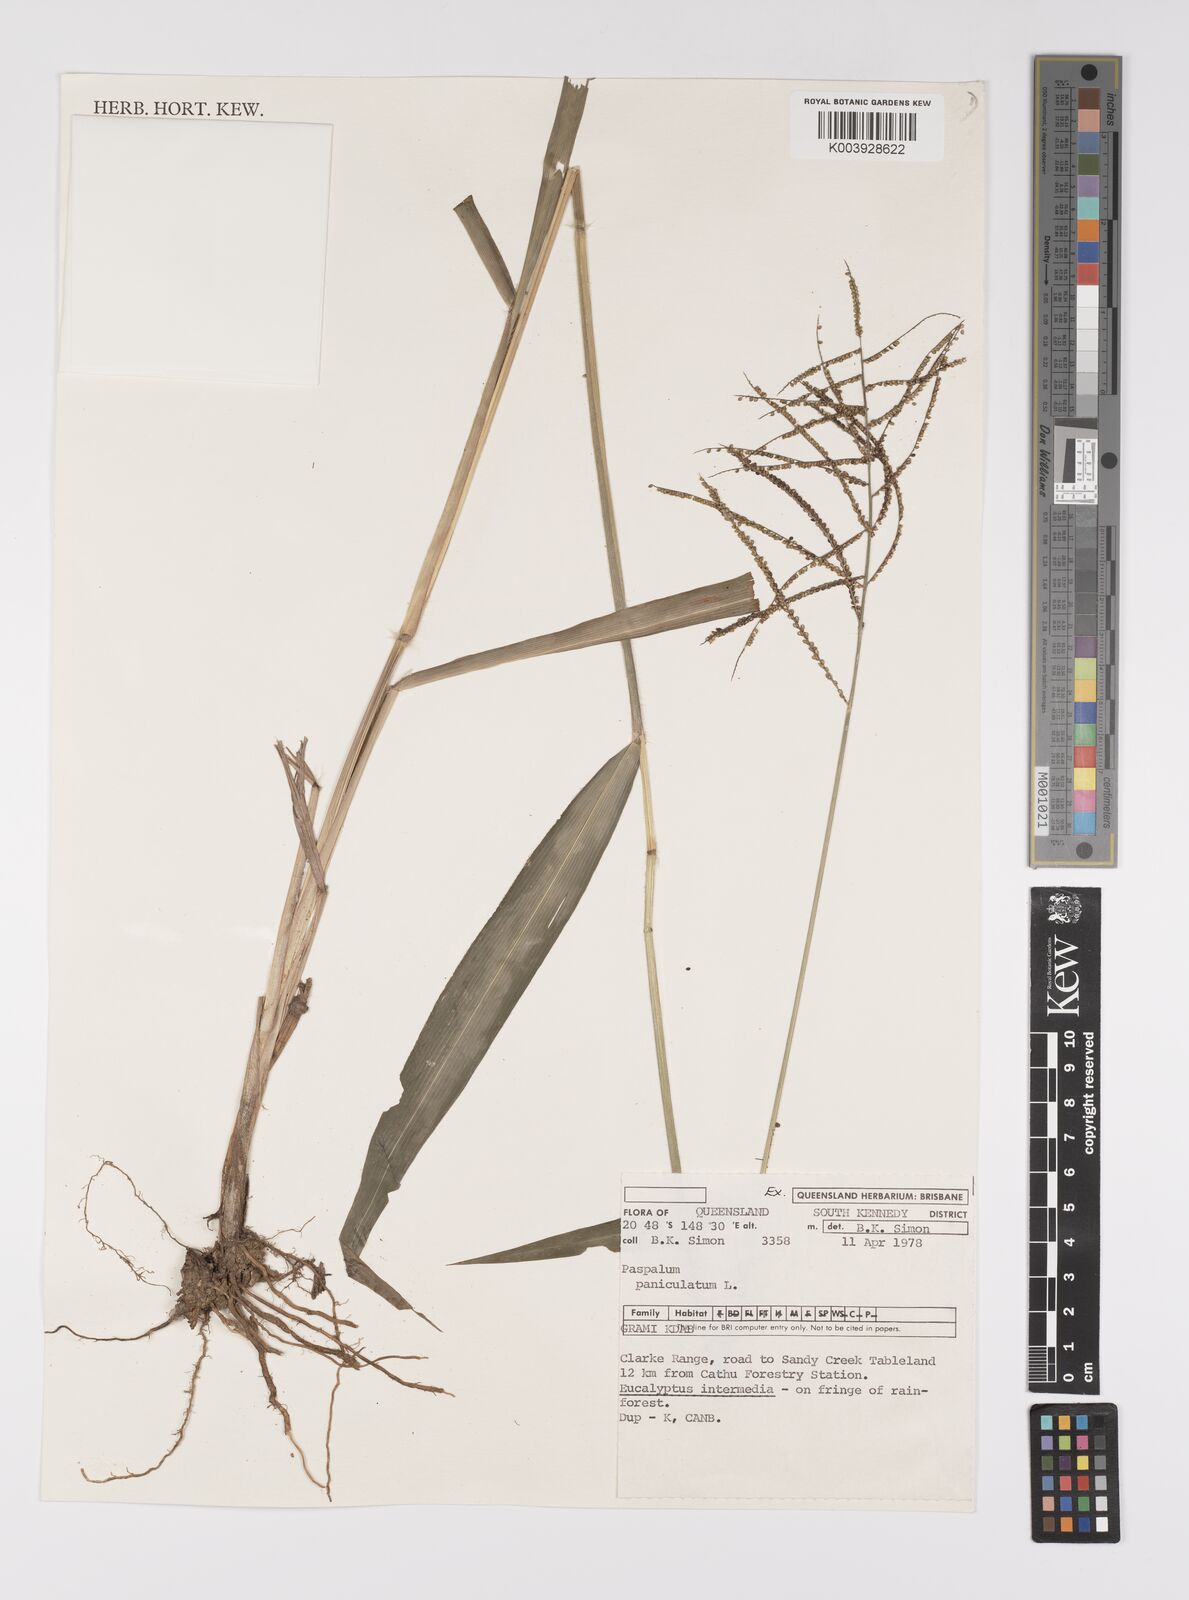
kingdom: Plantae
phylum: Tracheophyta
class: Liliopsida
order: Poales
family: Poaceae
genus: Paspalum
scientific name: Paspalum paniculatum
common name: Arrocillo
